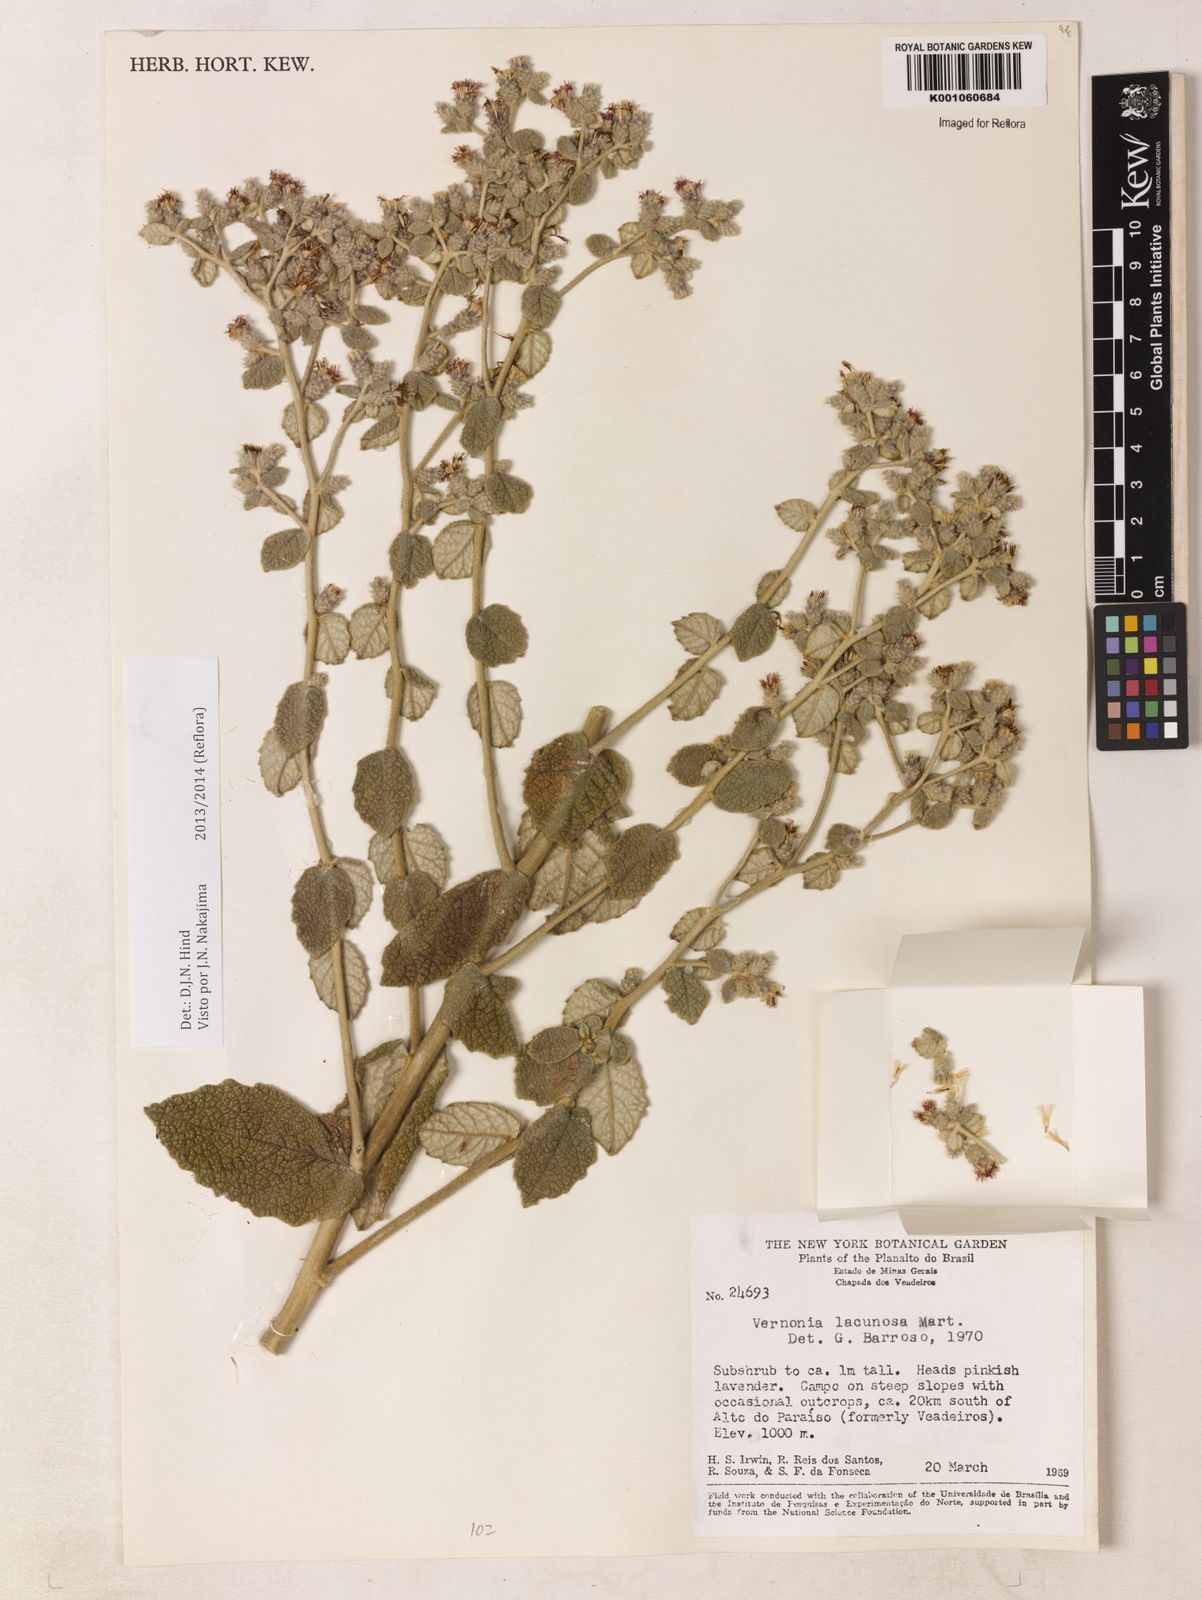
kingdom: Plantae
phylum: Tracheophyta
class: Magnoliopsida
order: Asterales
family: Asteraceae
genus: Lessingianthus
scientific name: Lessingianthus lacunosus
